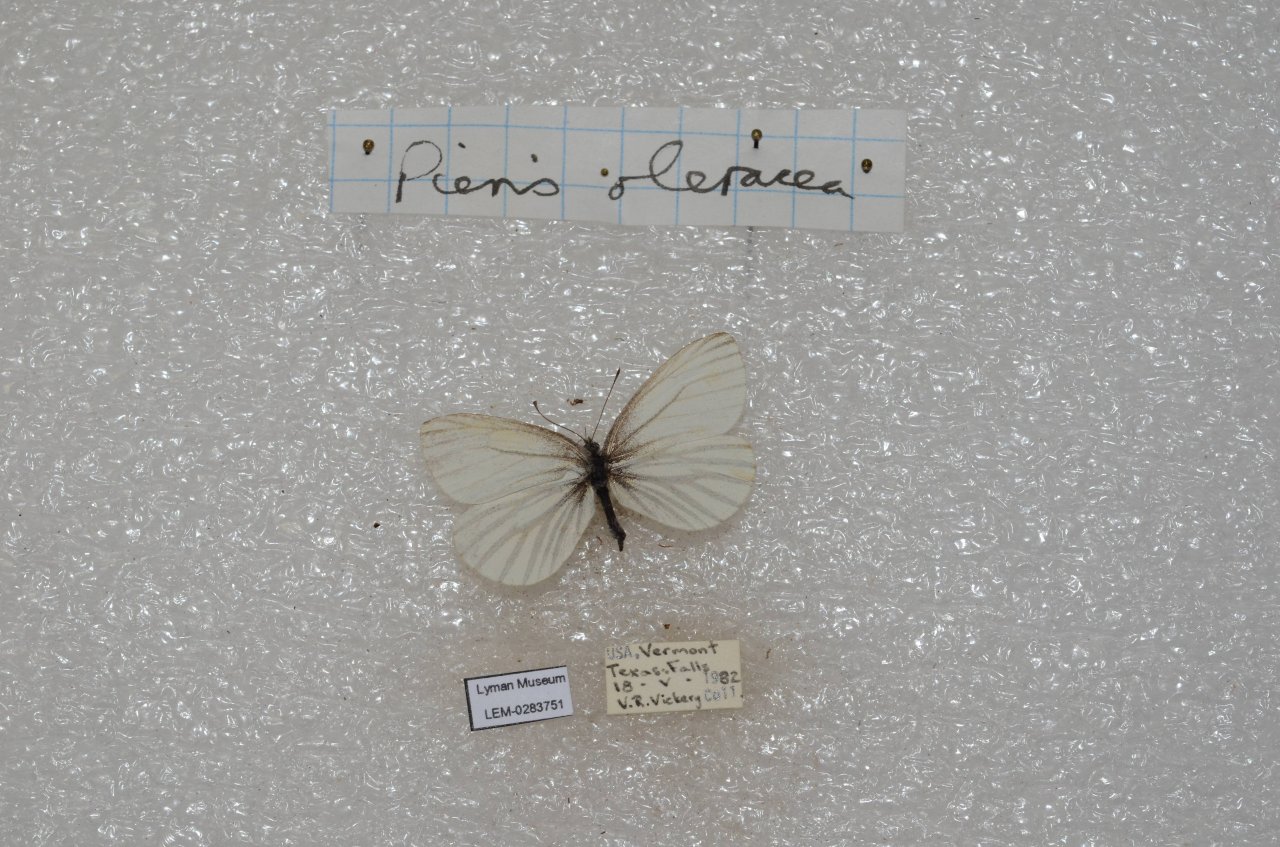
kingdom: Animalia
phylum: Arthropoda
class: Insecta
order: Lepidoptera
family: Pieridae
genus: Pieris
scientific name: Pieris oleracea
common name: Mustard White
